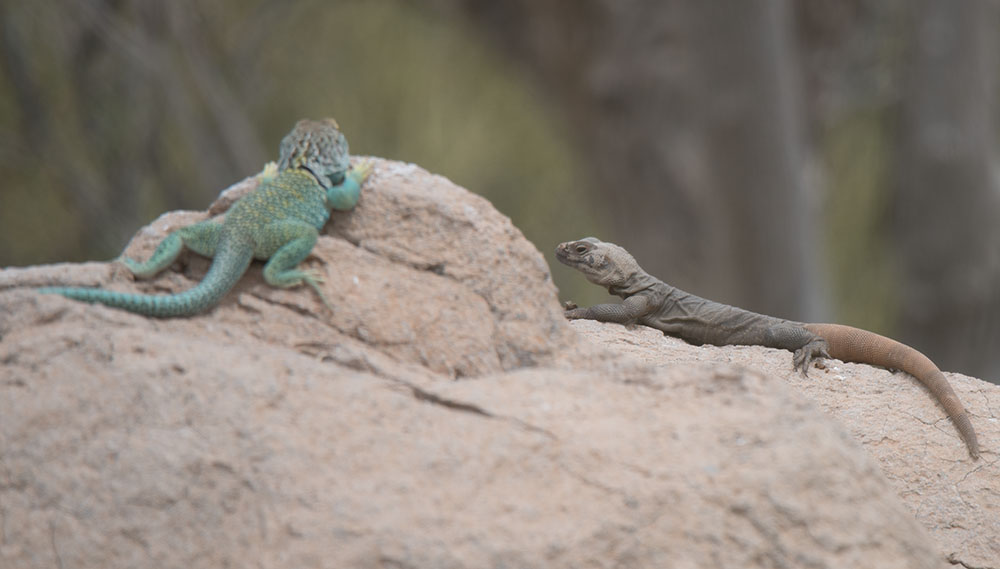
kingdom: Animalia
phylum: Chordata
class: Squamata
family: Crotaphytidae
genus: Crotaphytus
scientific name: Crotaphytus bicinctores
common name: Mojave black-collared lizard
